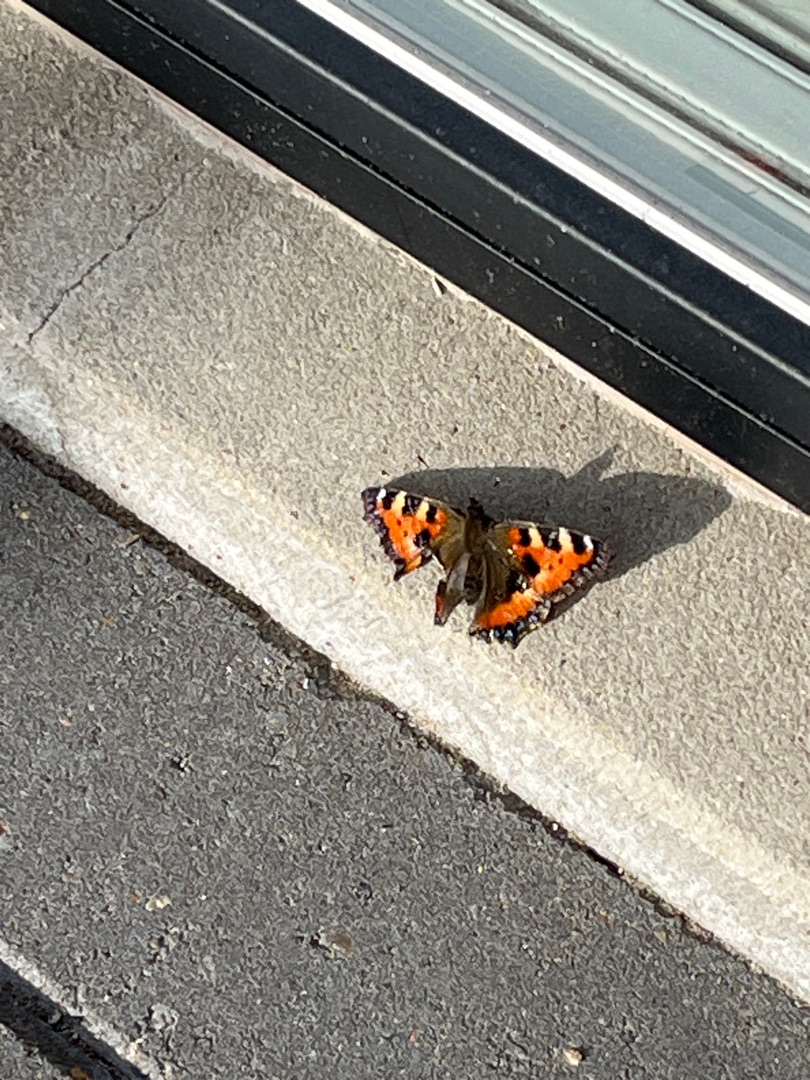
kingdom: Animalia
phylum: Arthropoda
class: Insecta
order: Lepidoptera
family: Nymphalidae
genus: Aglais
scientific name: Aglais urticae
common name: Nældens takvinge
